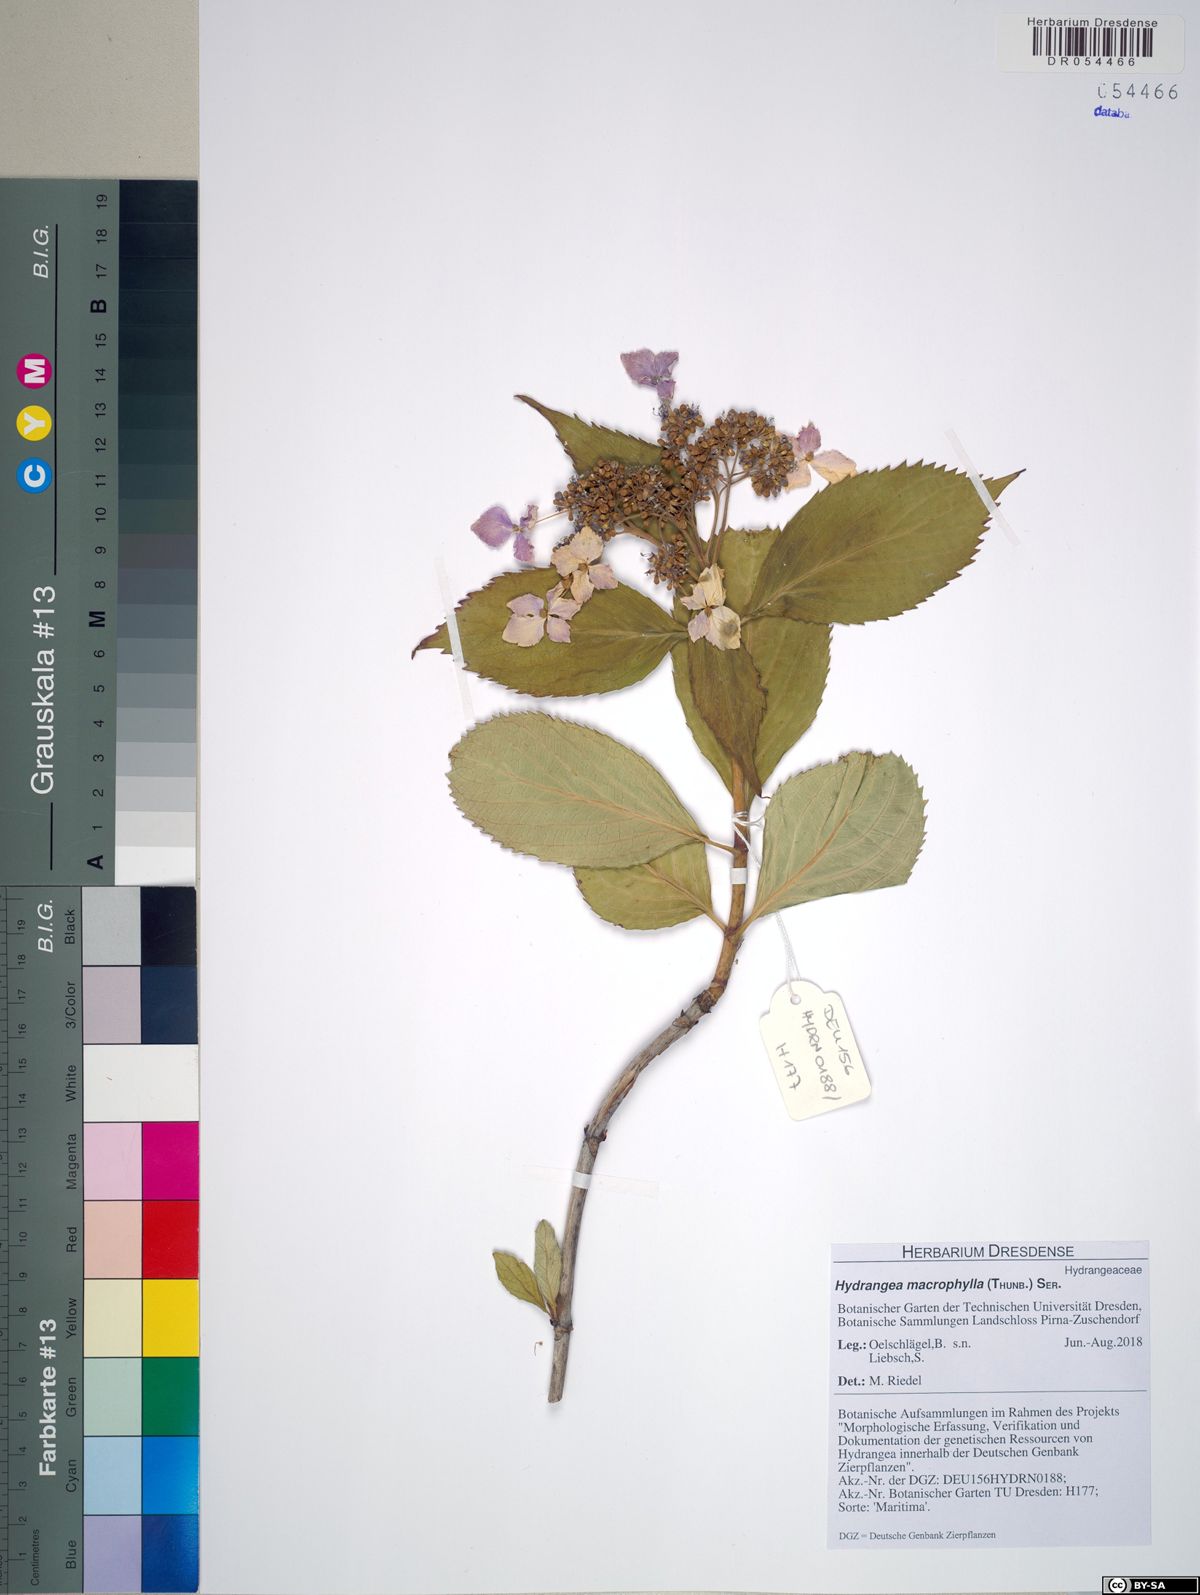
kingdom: Plantae
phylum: Tracheophyta
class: Magnoliopsida
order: Cornales
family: Hydrangeaceae
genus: Hydrangea
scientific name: Hydrangea macrophylla
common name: Hydrangea
